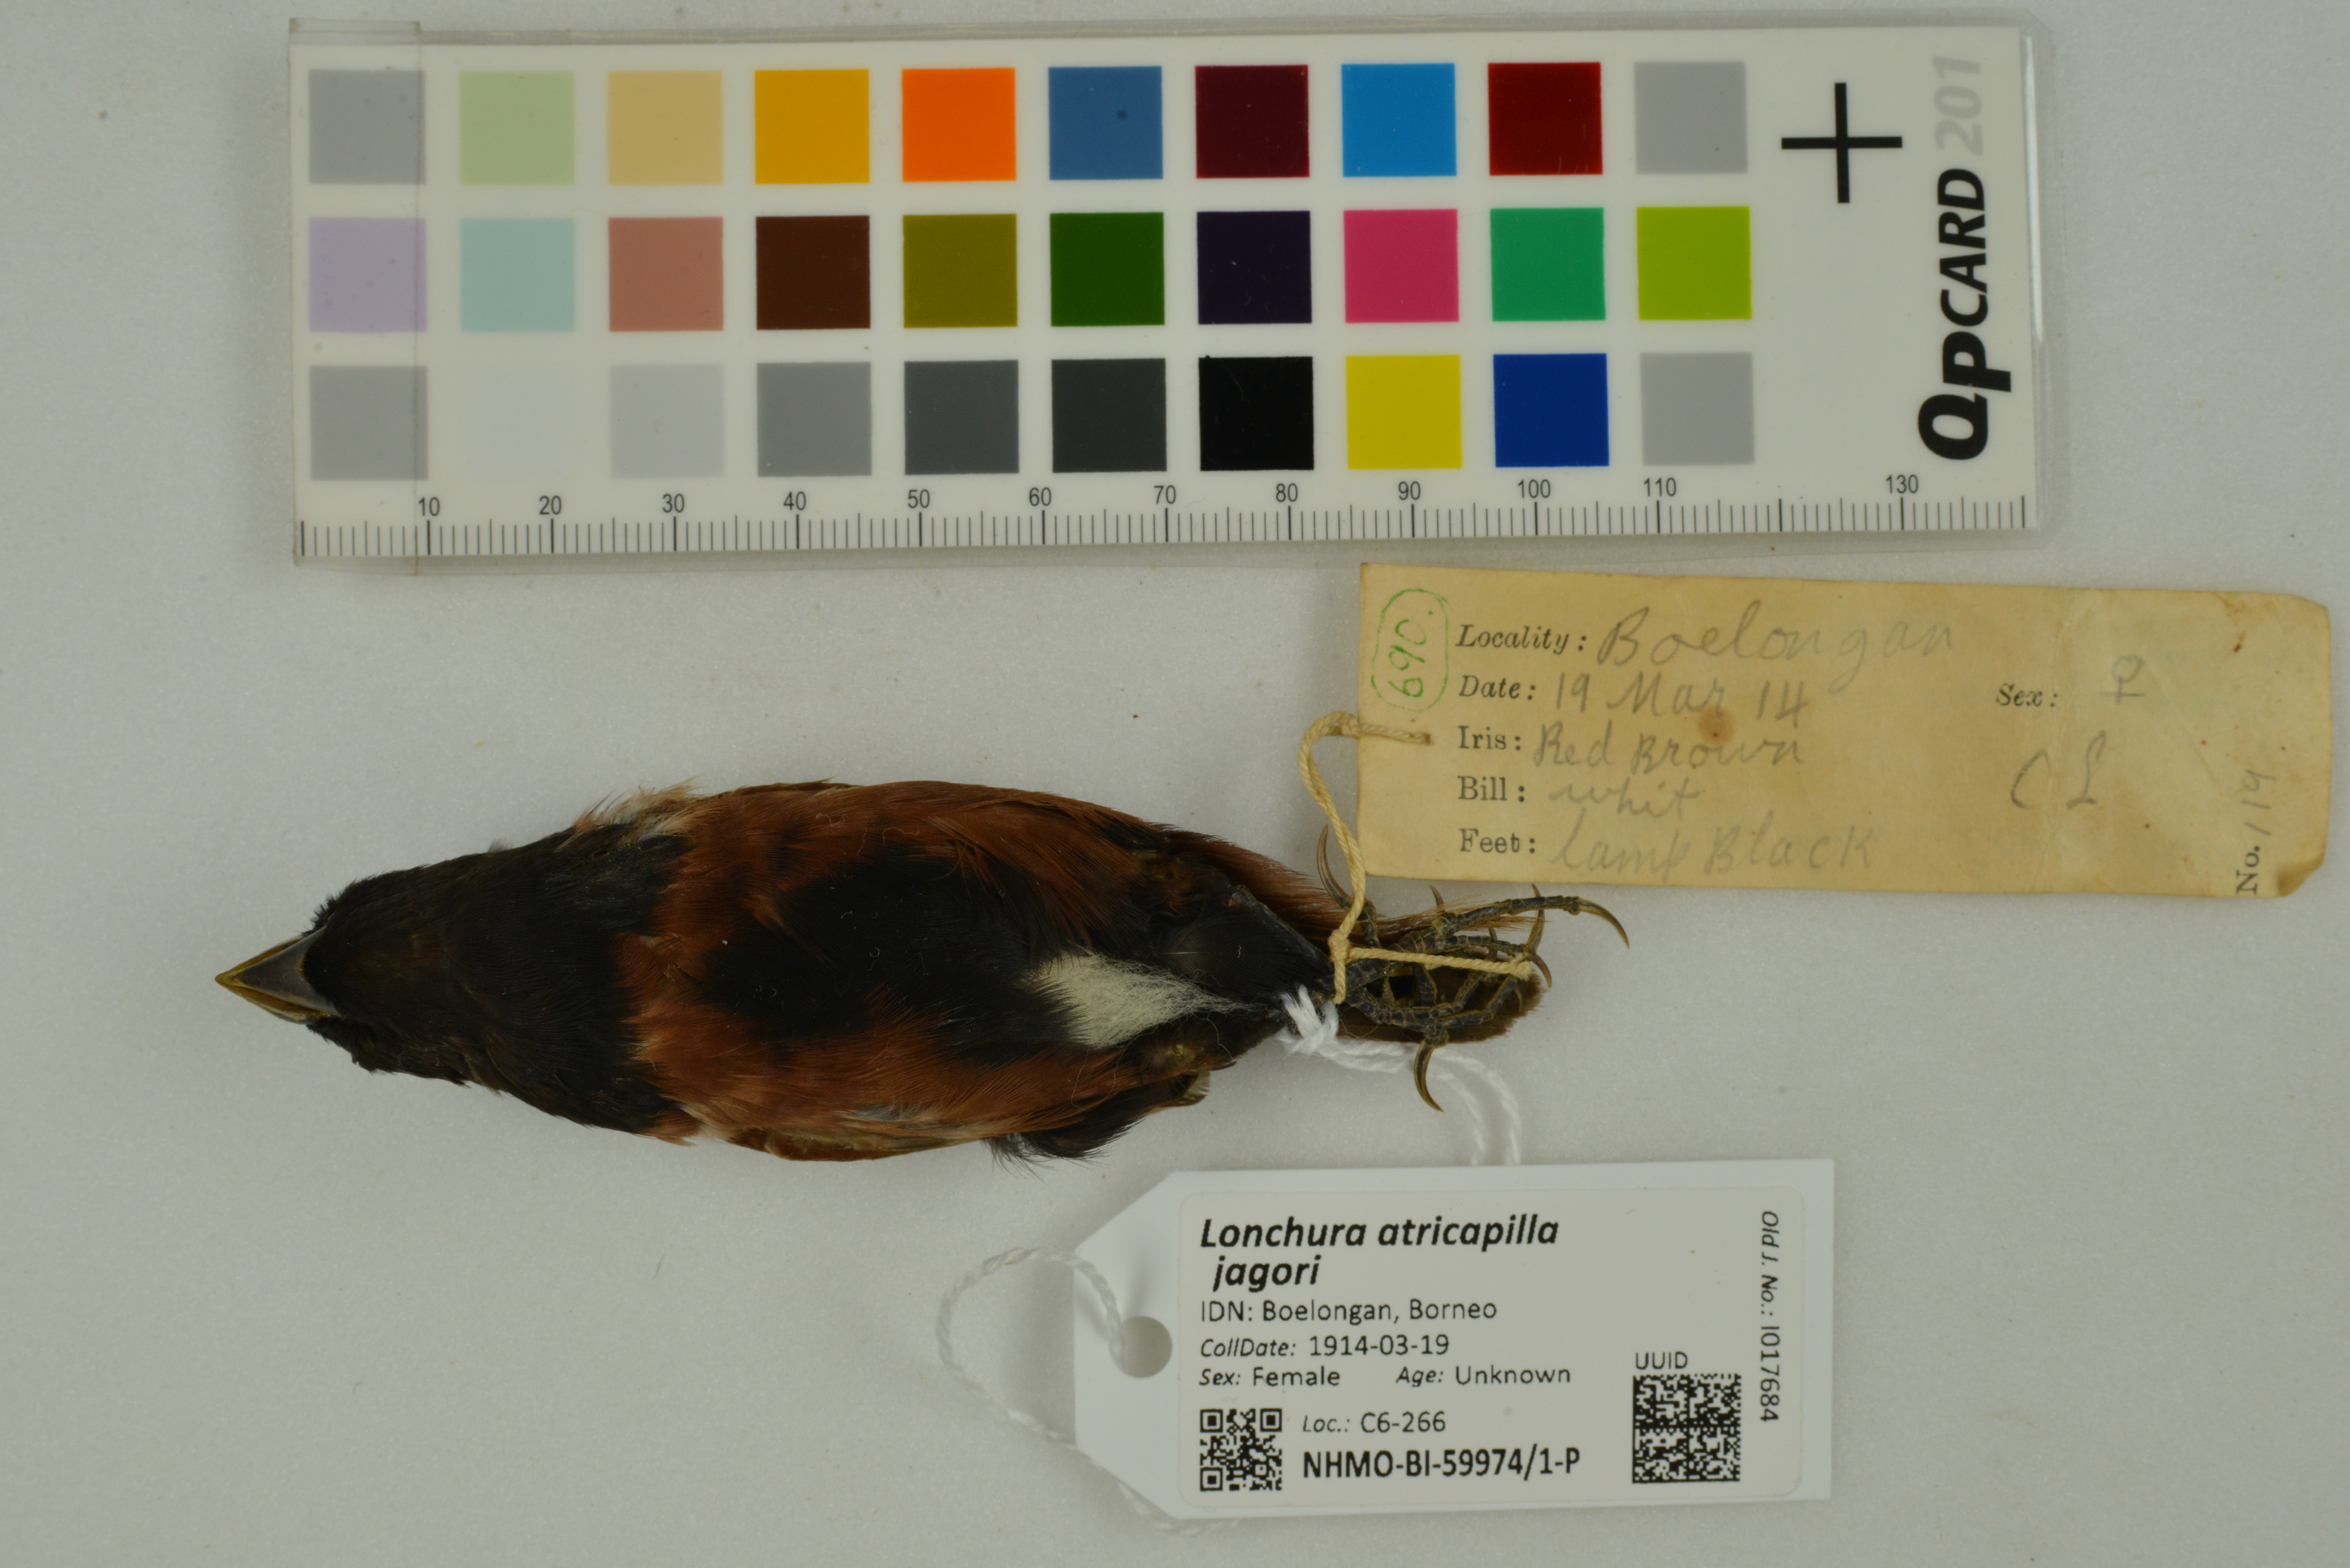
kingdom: Animalia
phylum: Chordata
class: Aves
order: Passeriformes
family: Estrildidae
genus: Lonchura
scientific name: Lonchura atricapilla
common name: Chestnut munia
